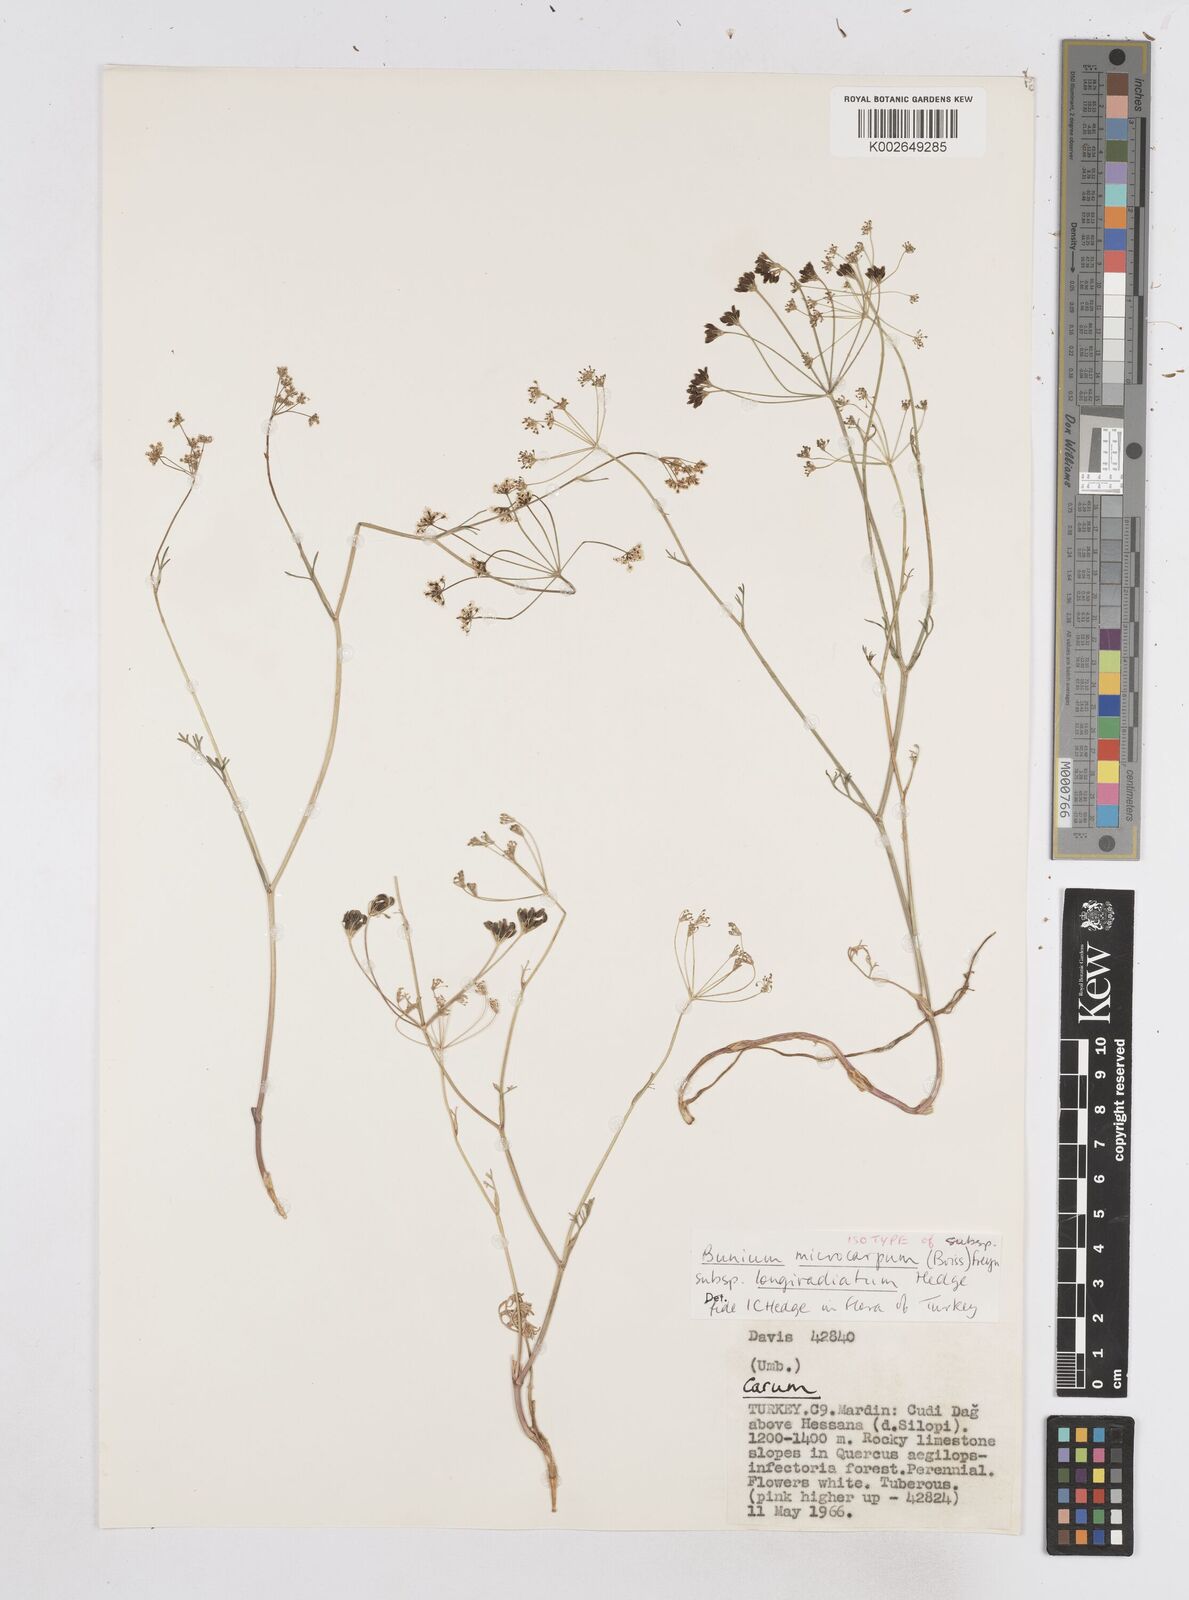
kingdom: Plantae
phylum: Tracheophyta
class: Magnoliopsida
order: Apiales
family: Apiaceae
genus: Bunium
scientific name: Bunium microcarpum
